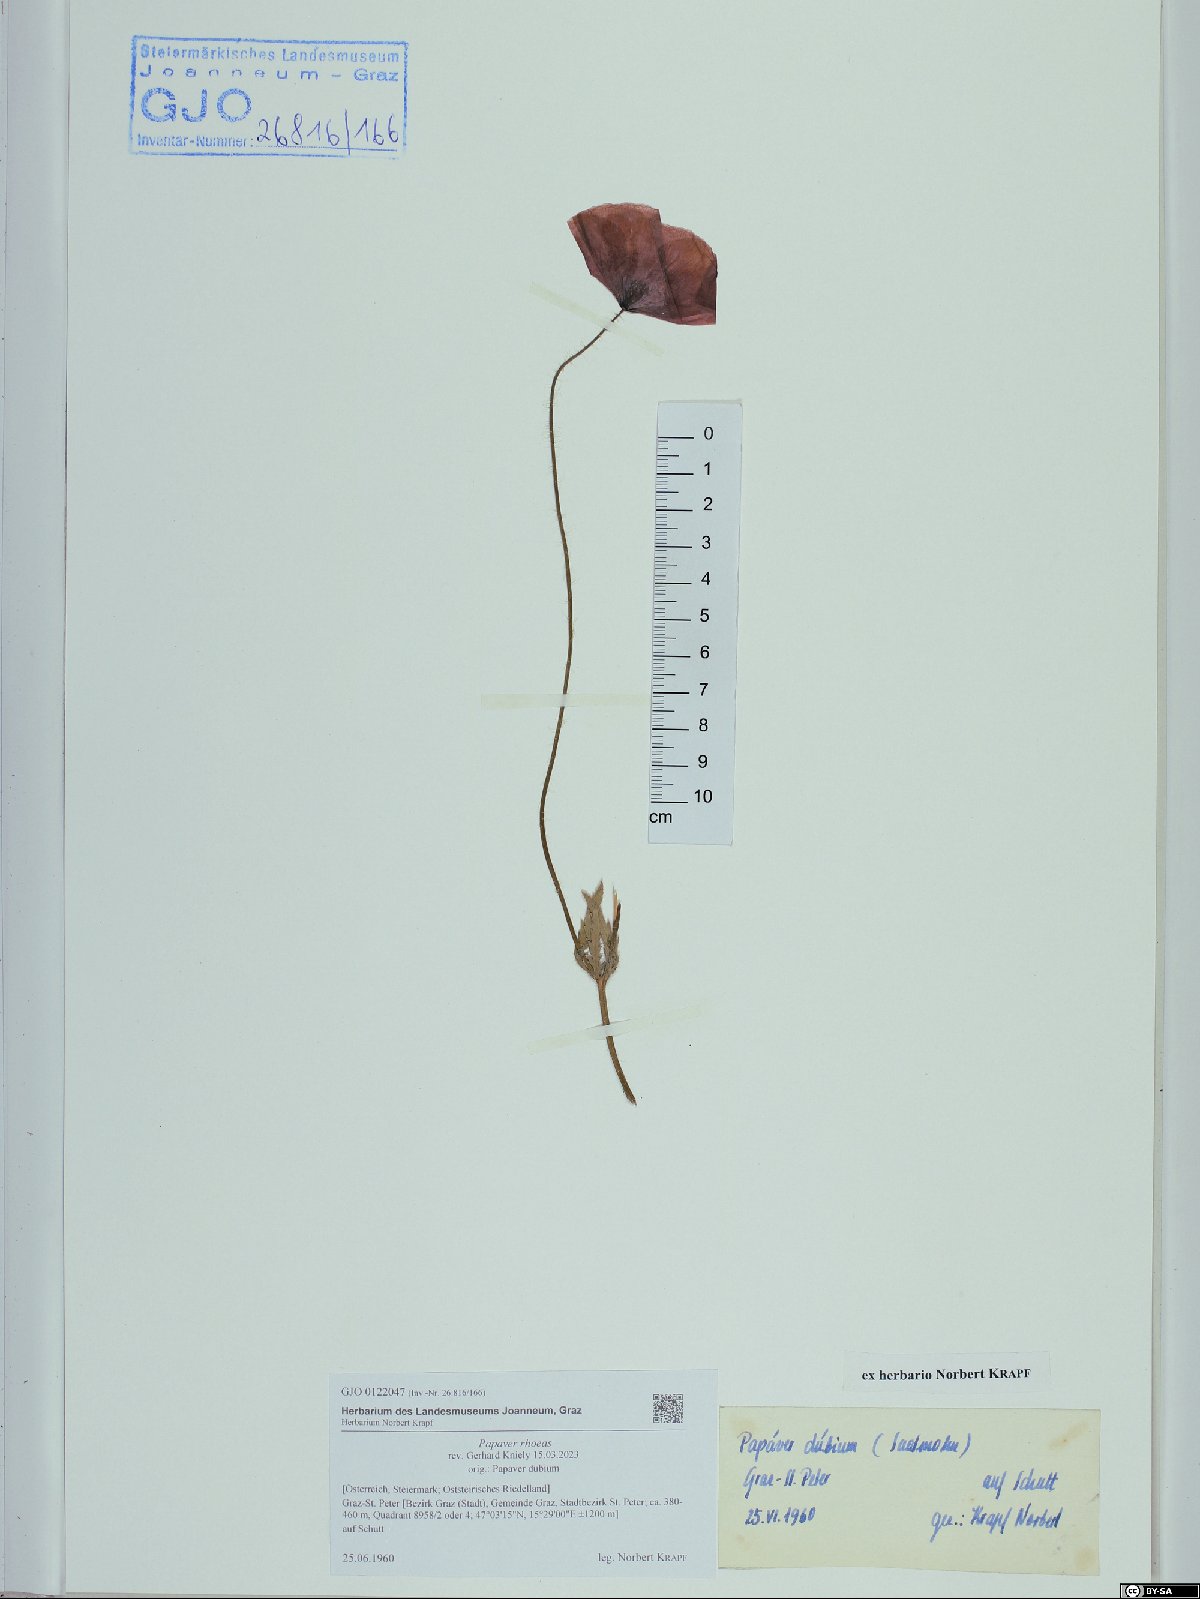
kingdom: Plantae
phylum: Tracheophyta
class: Magnoliopsida
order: Ranunculales
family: Papaveraceae
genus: Papaver
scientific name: Papaver rhoeas
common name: Corn poppy
